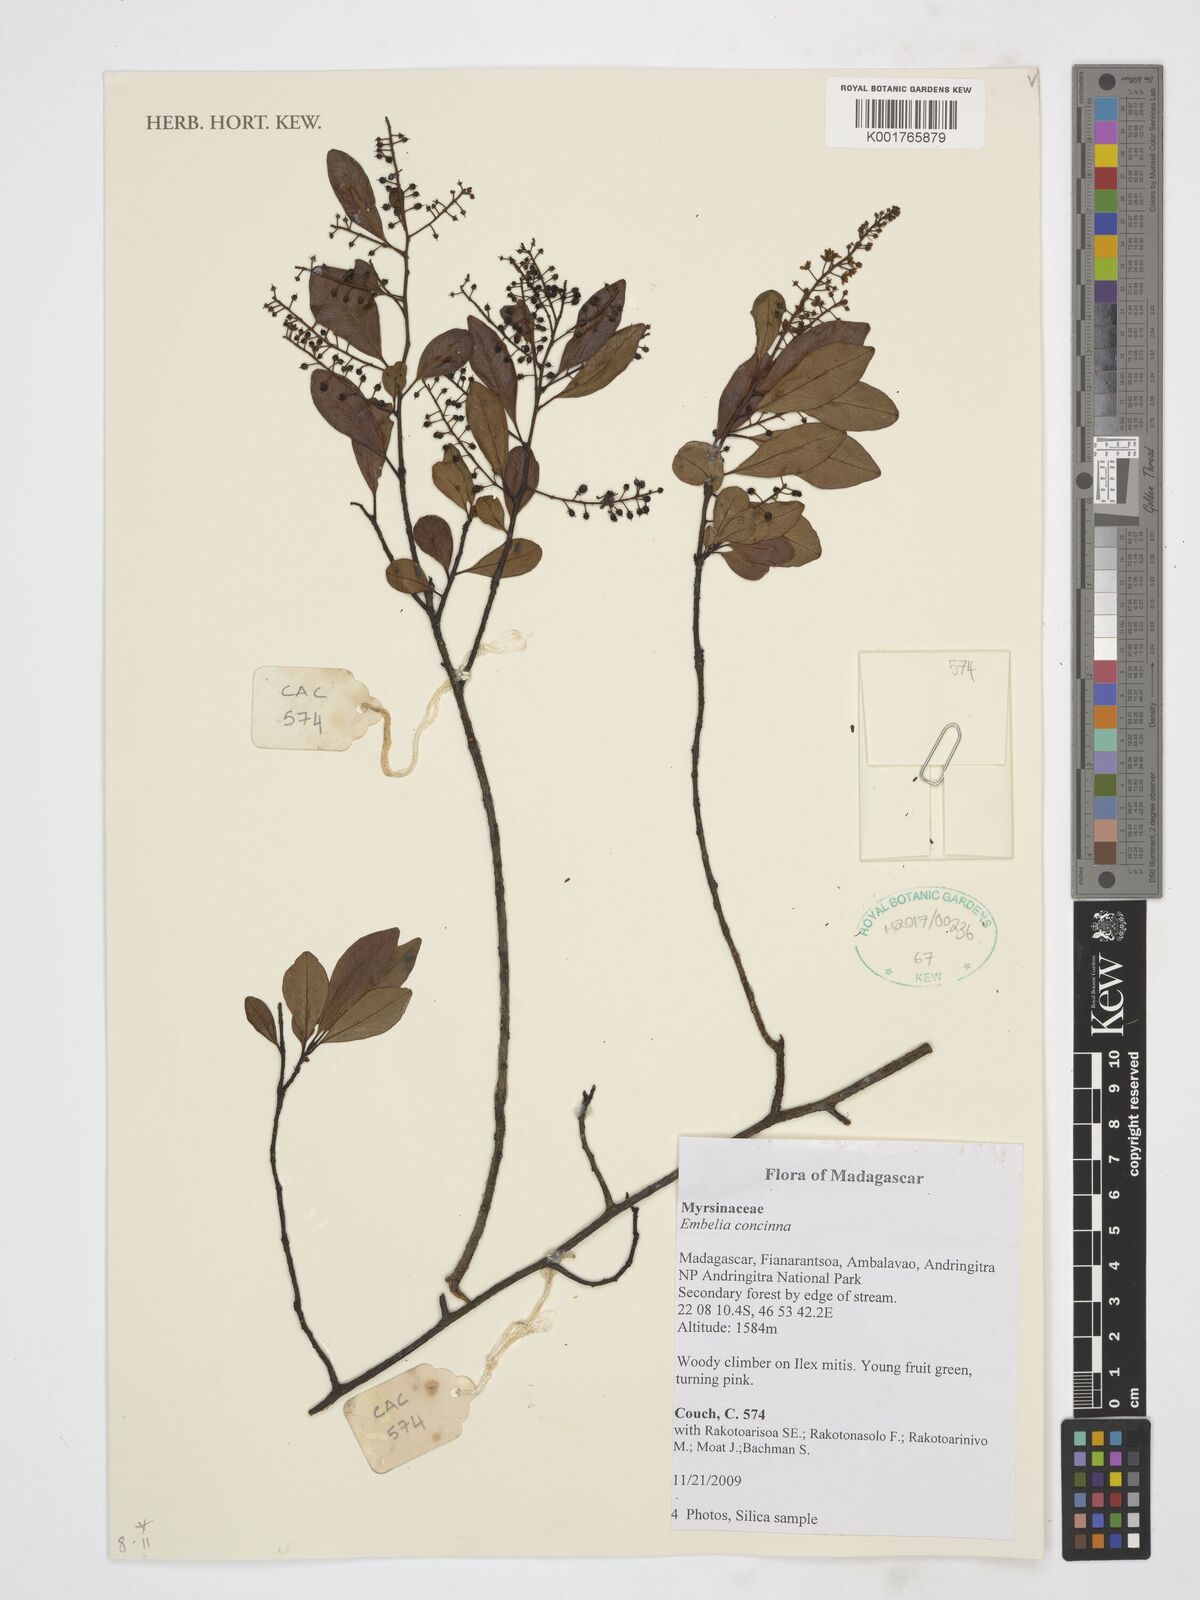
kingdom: Plantae
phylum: Tracheophyta
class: Magnoliopsida
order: Ericales
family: Primulaceae
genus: Embelia
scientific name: Embelia concinna
